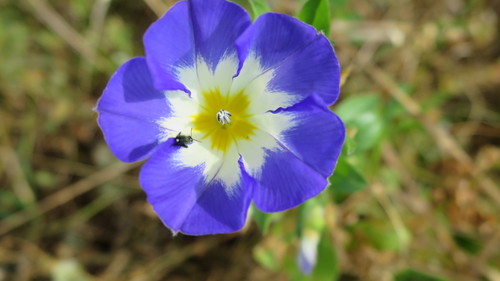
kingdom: Plantae
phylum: Tracheophyta
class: Magnoliopsida
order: Solanales
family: Convolvulaceae
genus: Convolvulus
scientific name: Convolvulus tricolor
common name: Dwarf morning-glory
